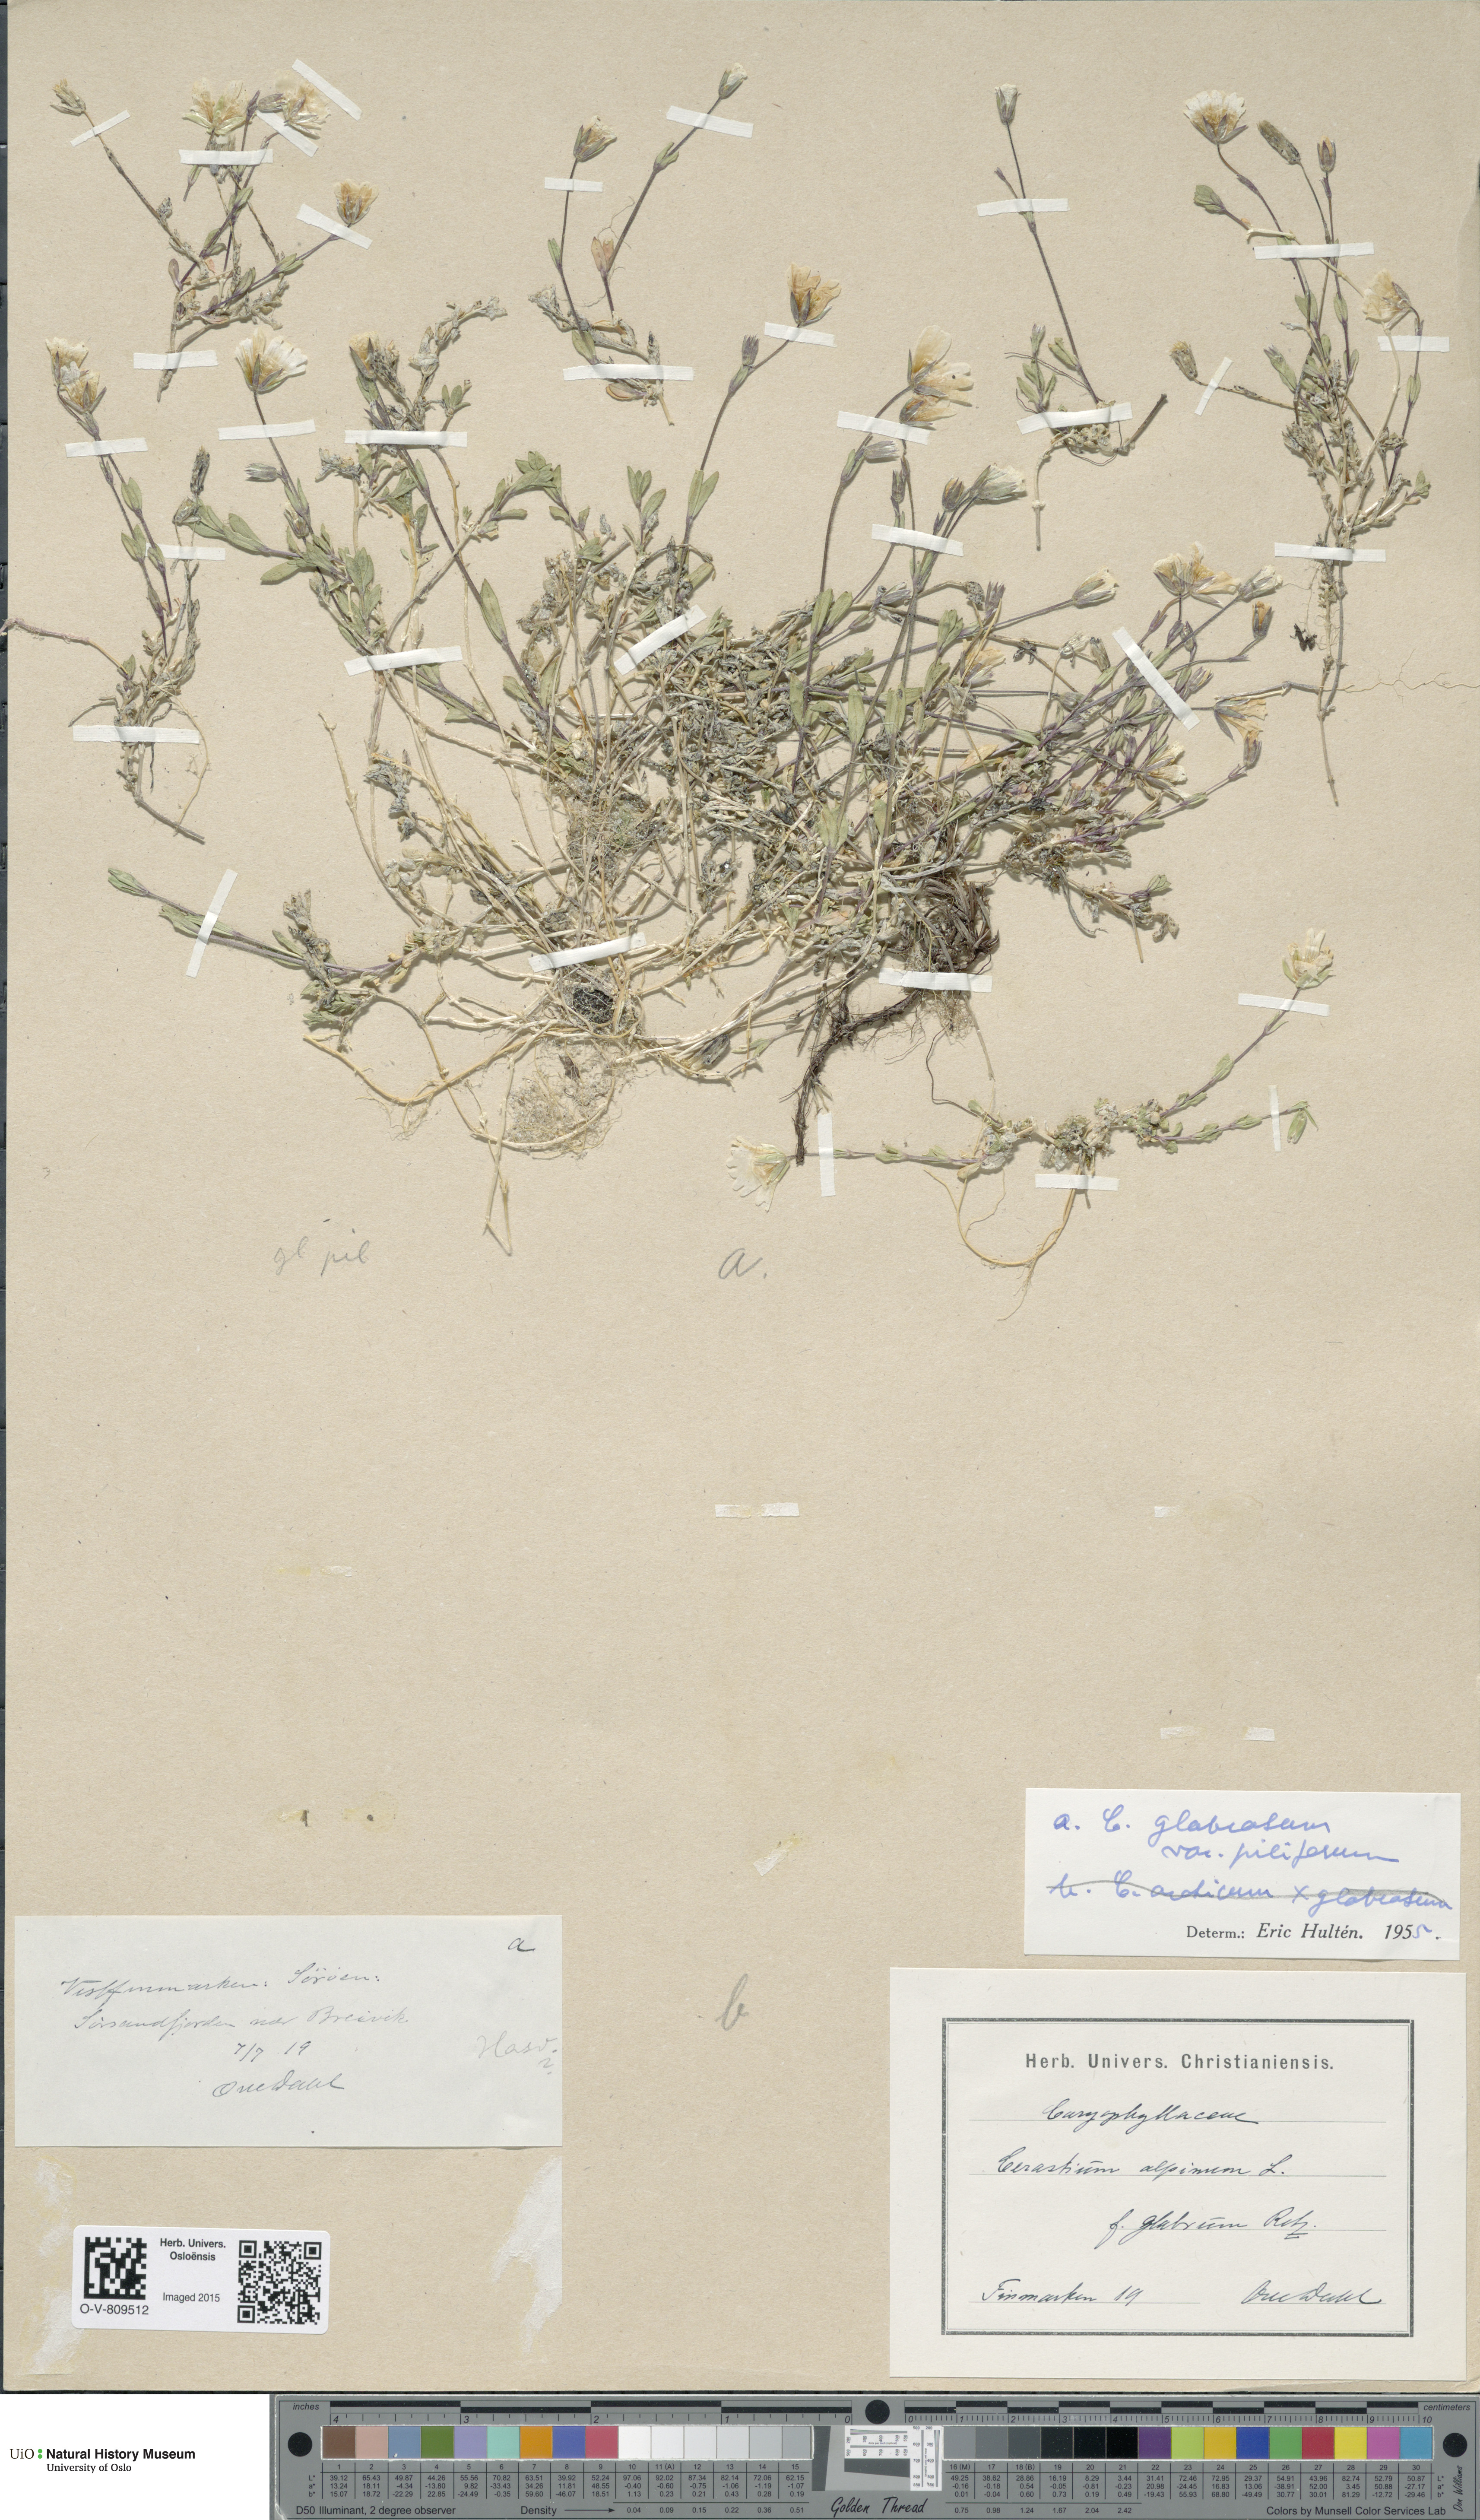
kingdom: Plantae
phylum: Tracheophyta
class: Magnoliopsida
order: Caryophyllales
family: Caryophyllaceae
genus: Cerastium
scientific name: Cerastium alpinum
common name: Alpine mouse-ear
